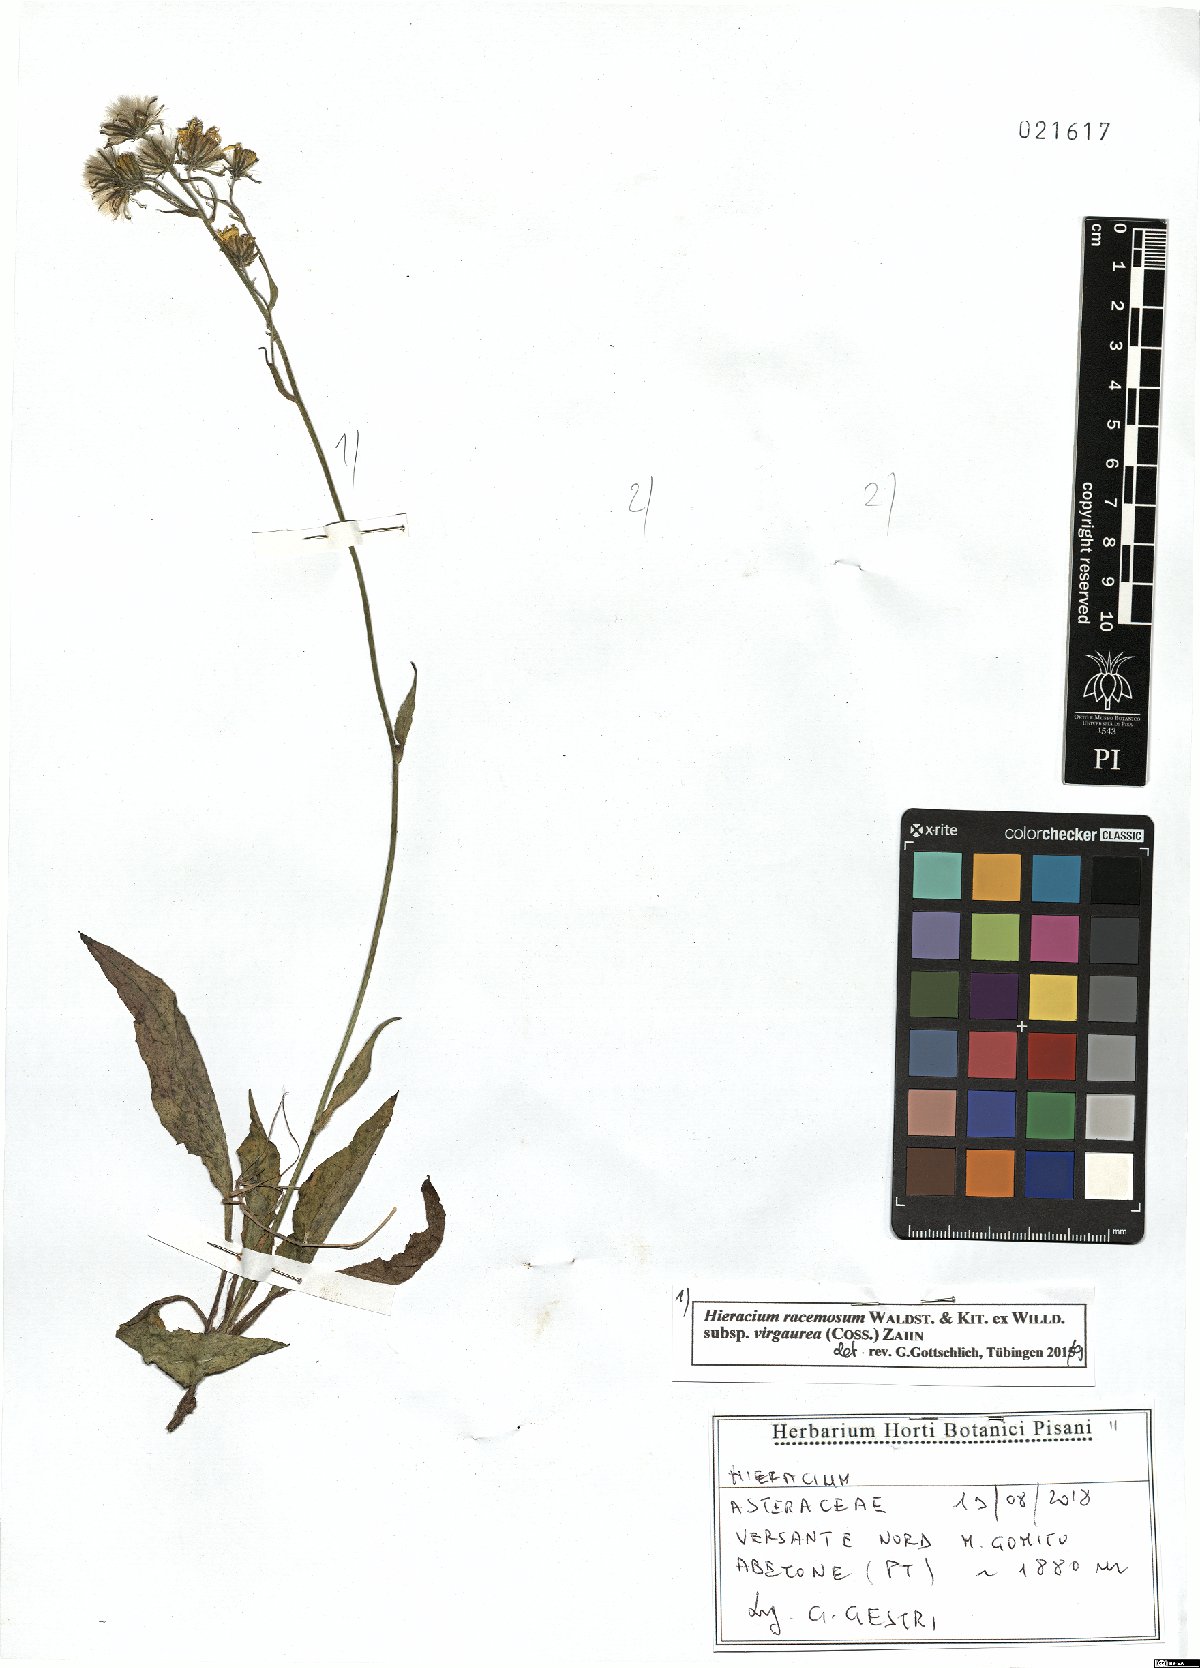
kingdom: Plantae
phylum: Tracheophyta
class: Magnoliopsida
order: Asterales
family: Asteraceae
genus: Hieracium
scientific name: Hieracium racemosum
